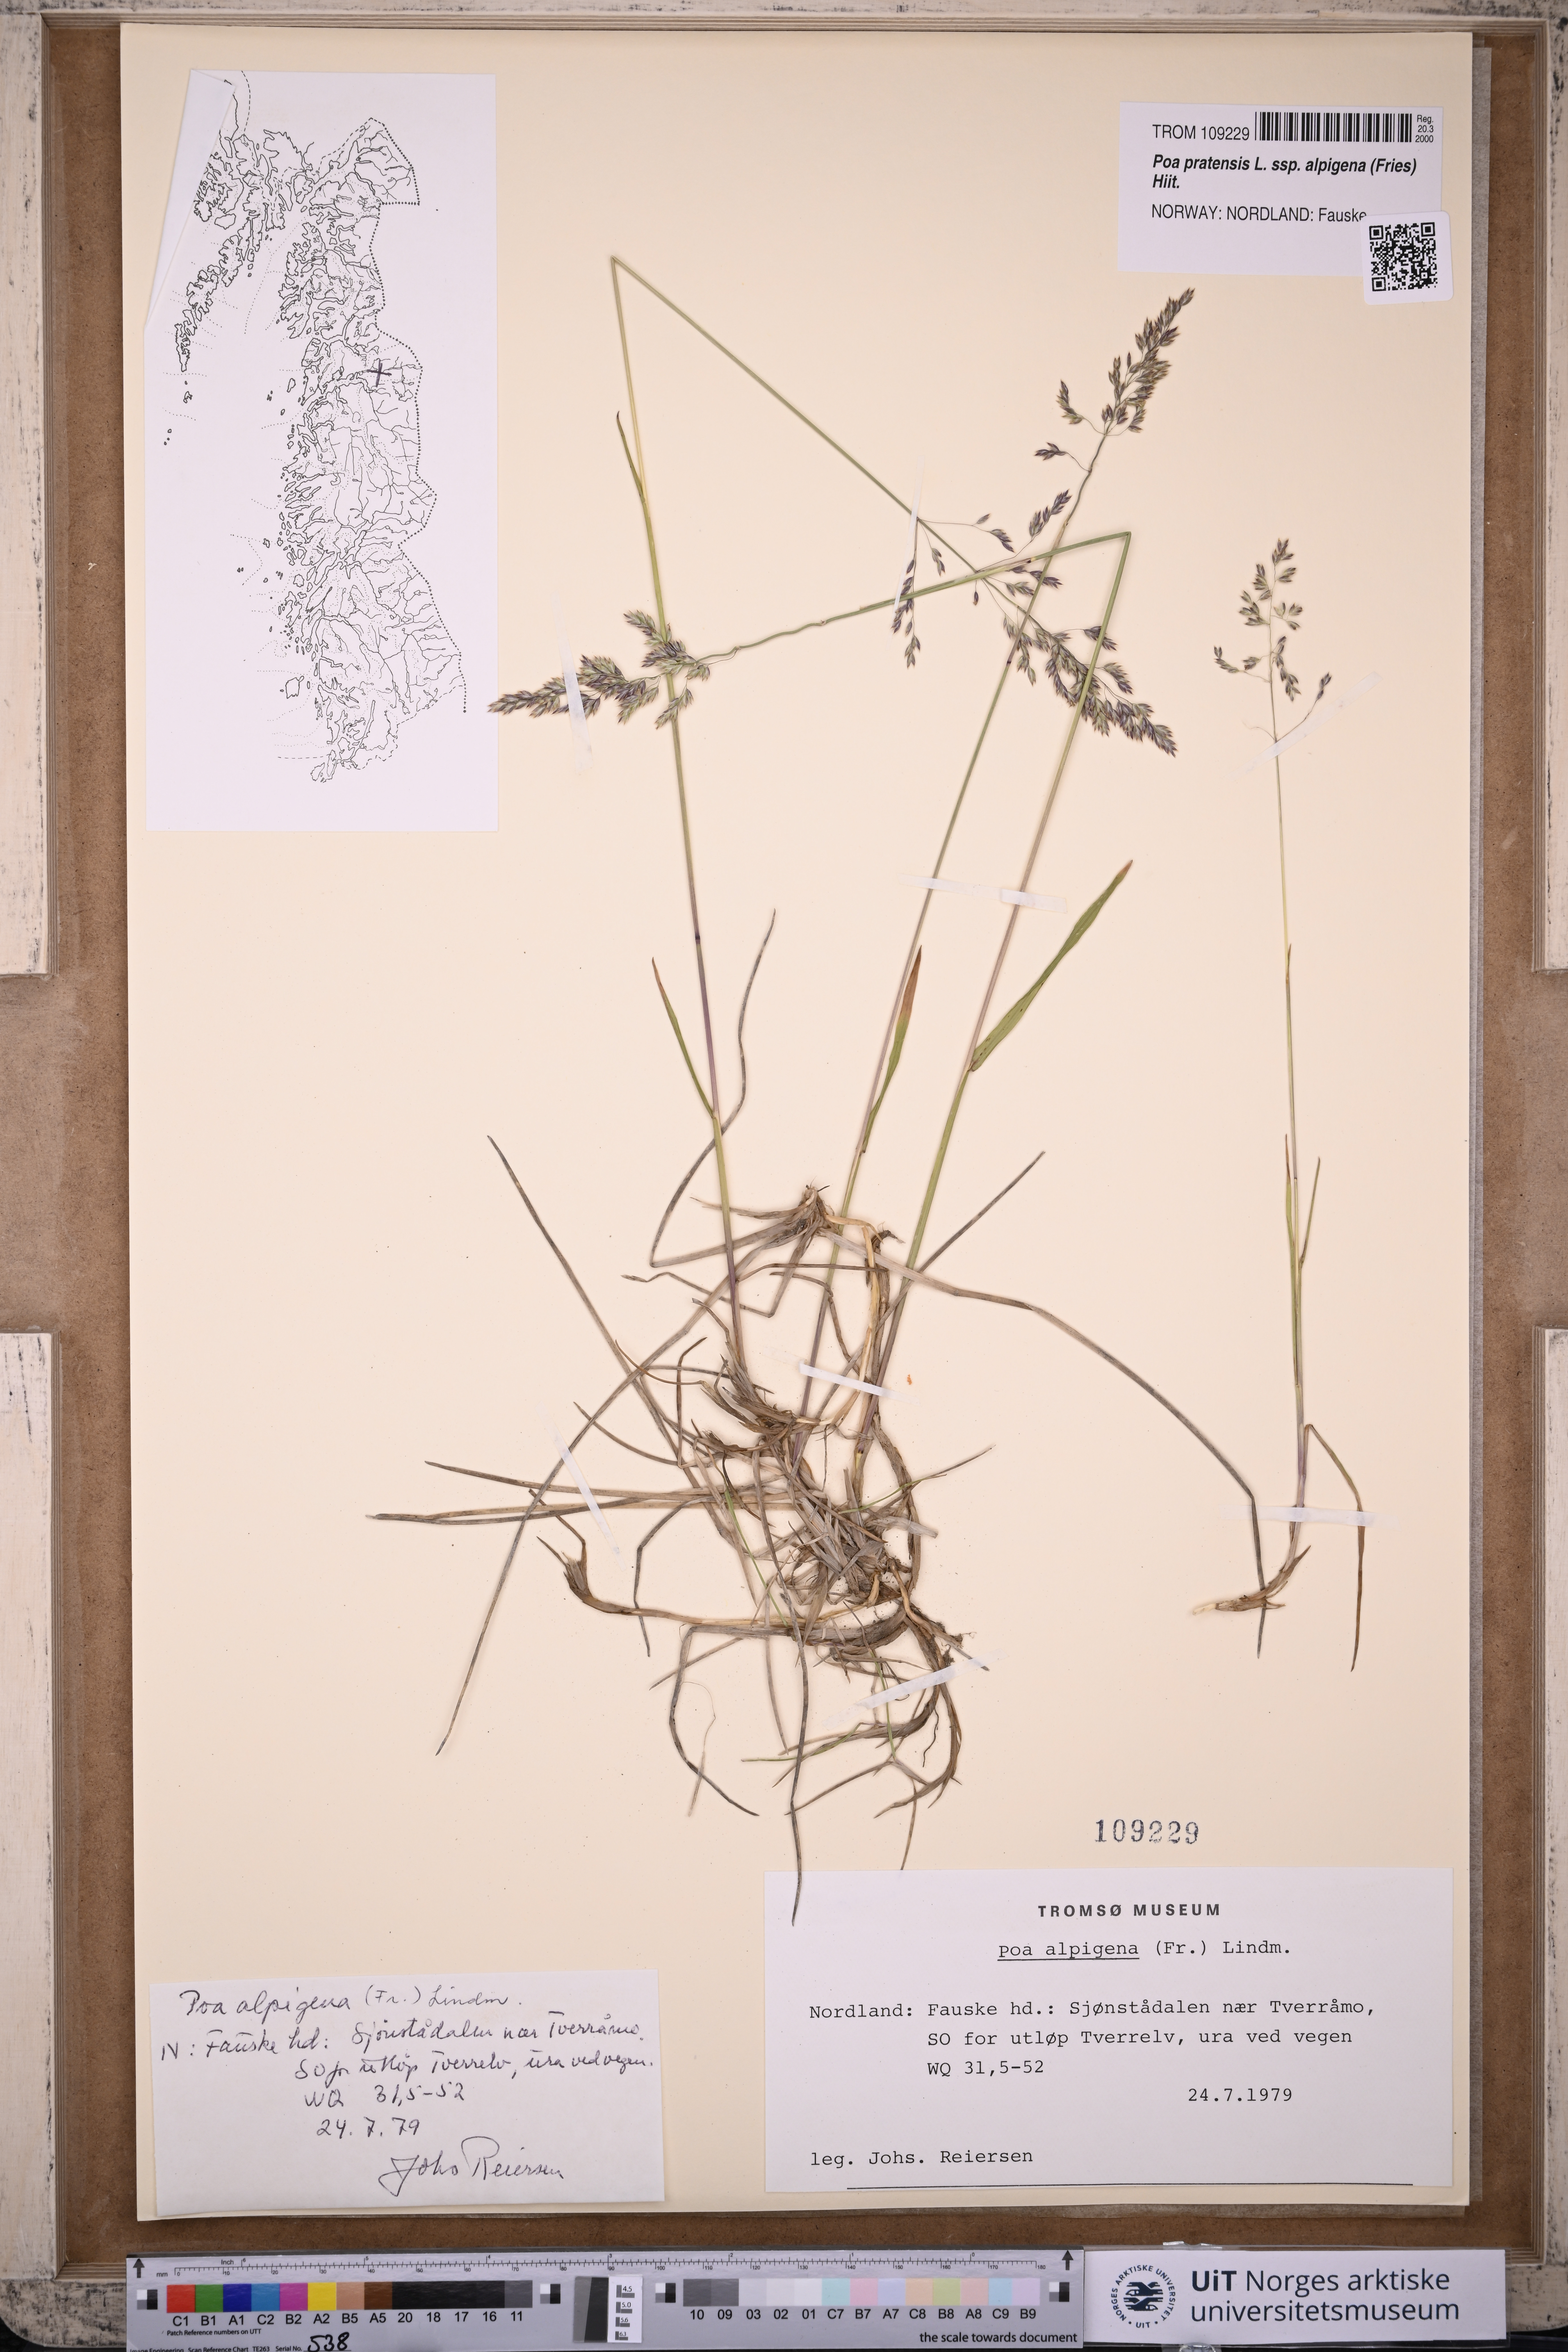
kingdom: Plantae
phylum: Tracheophyta
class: Liliopsida
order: Poales
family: Poaceae
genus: Poa
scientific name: Poa alpigena
